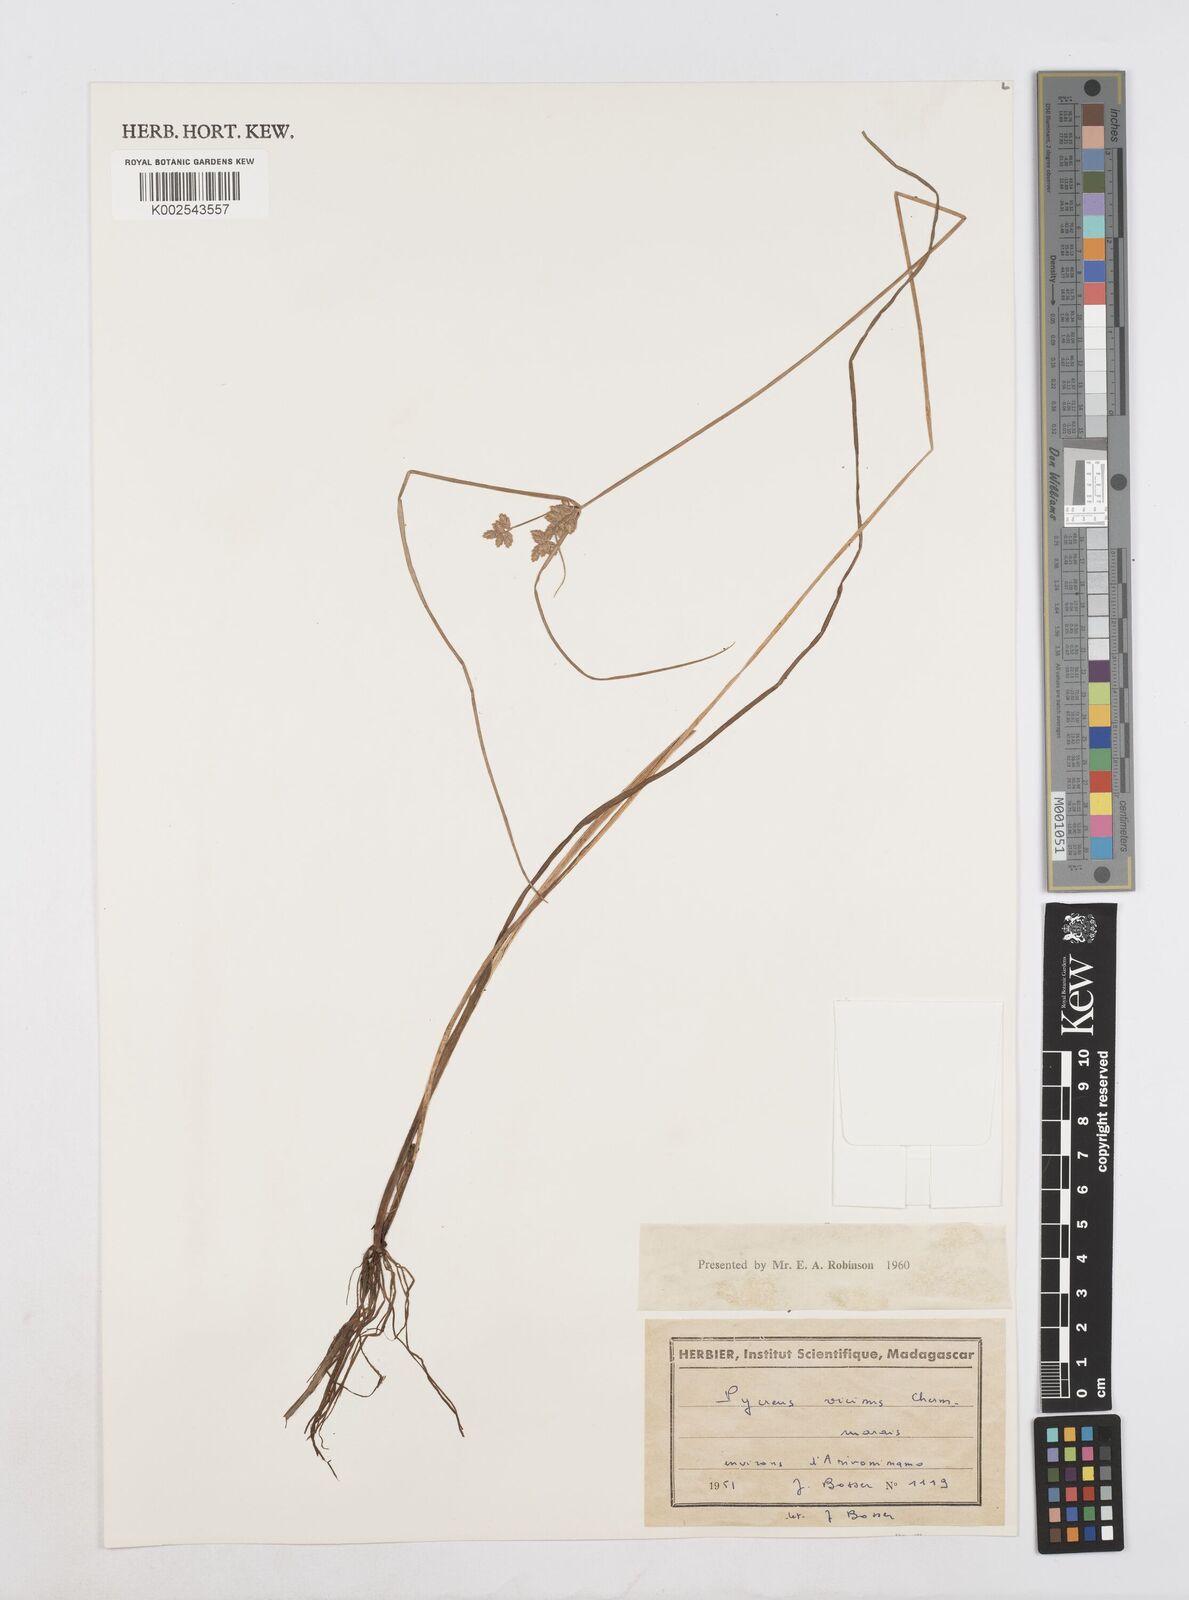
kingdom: Plantae
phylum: Tracheophyta
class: Liliopsida
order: Poales
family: Cyperaceae
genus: Cyperus
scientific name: Cyperus
